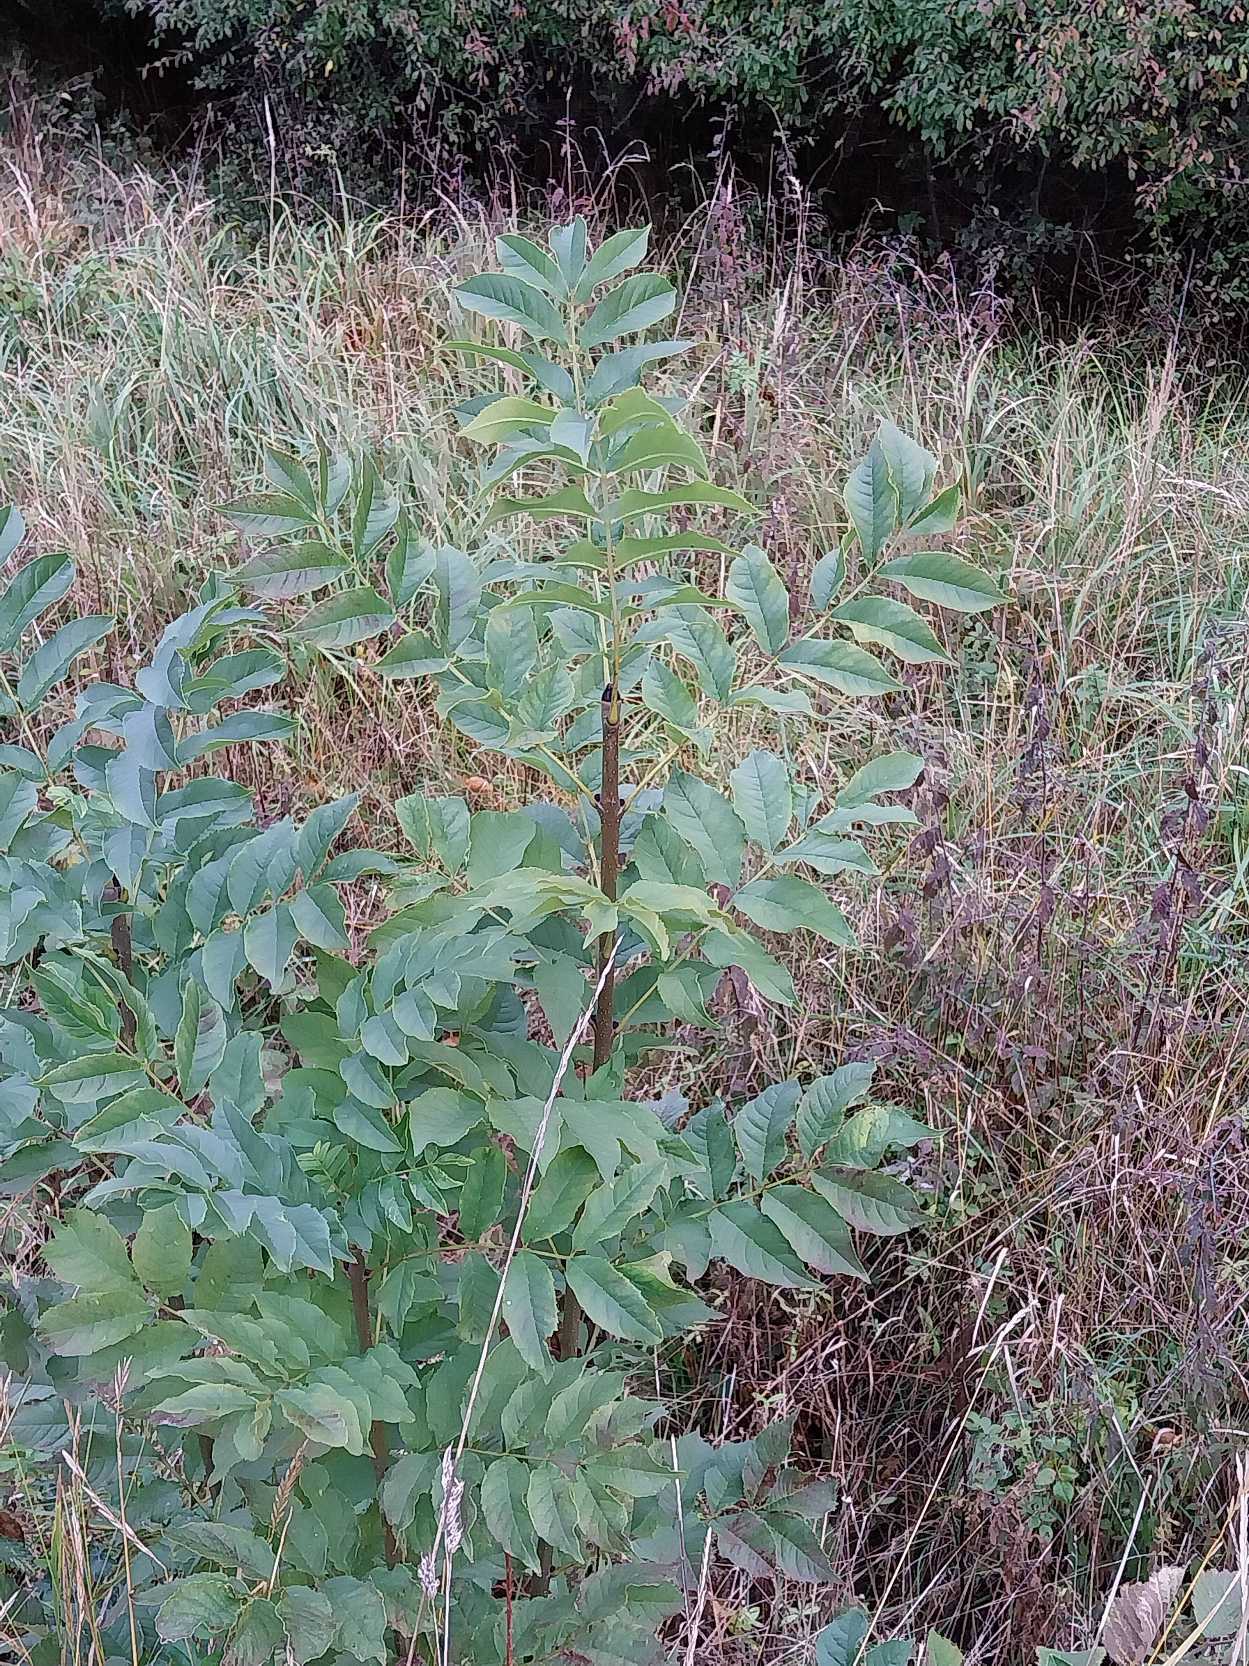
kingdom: Plantae
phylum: Tracheophyta
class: Magnoliopsida
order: Lamiales
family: Oleaceae
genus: Fraxinus
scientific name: Fraxinus excelsior
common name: Ask
